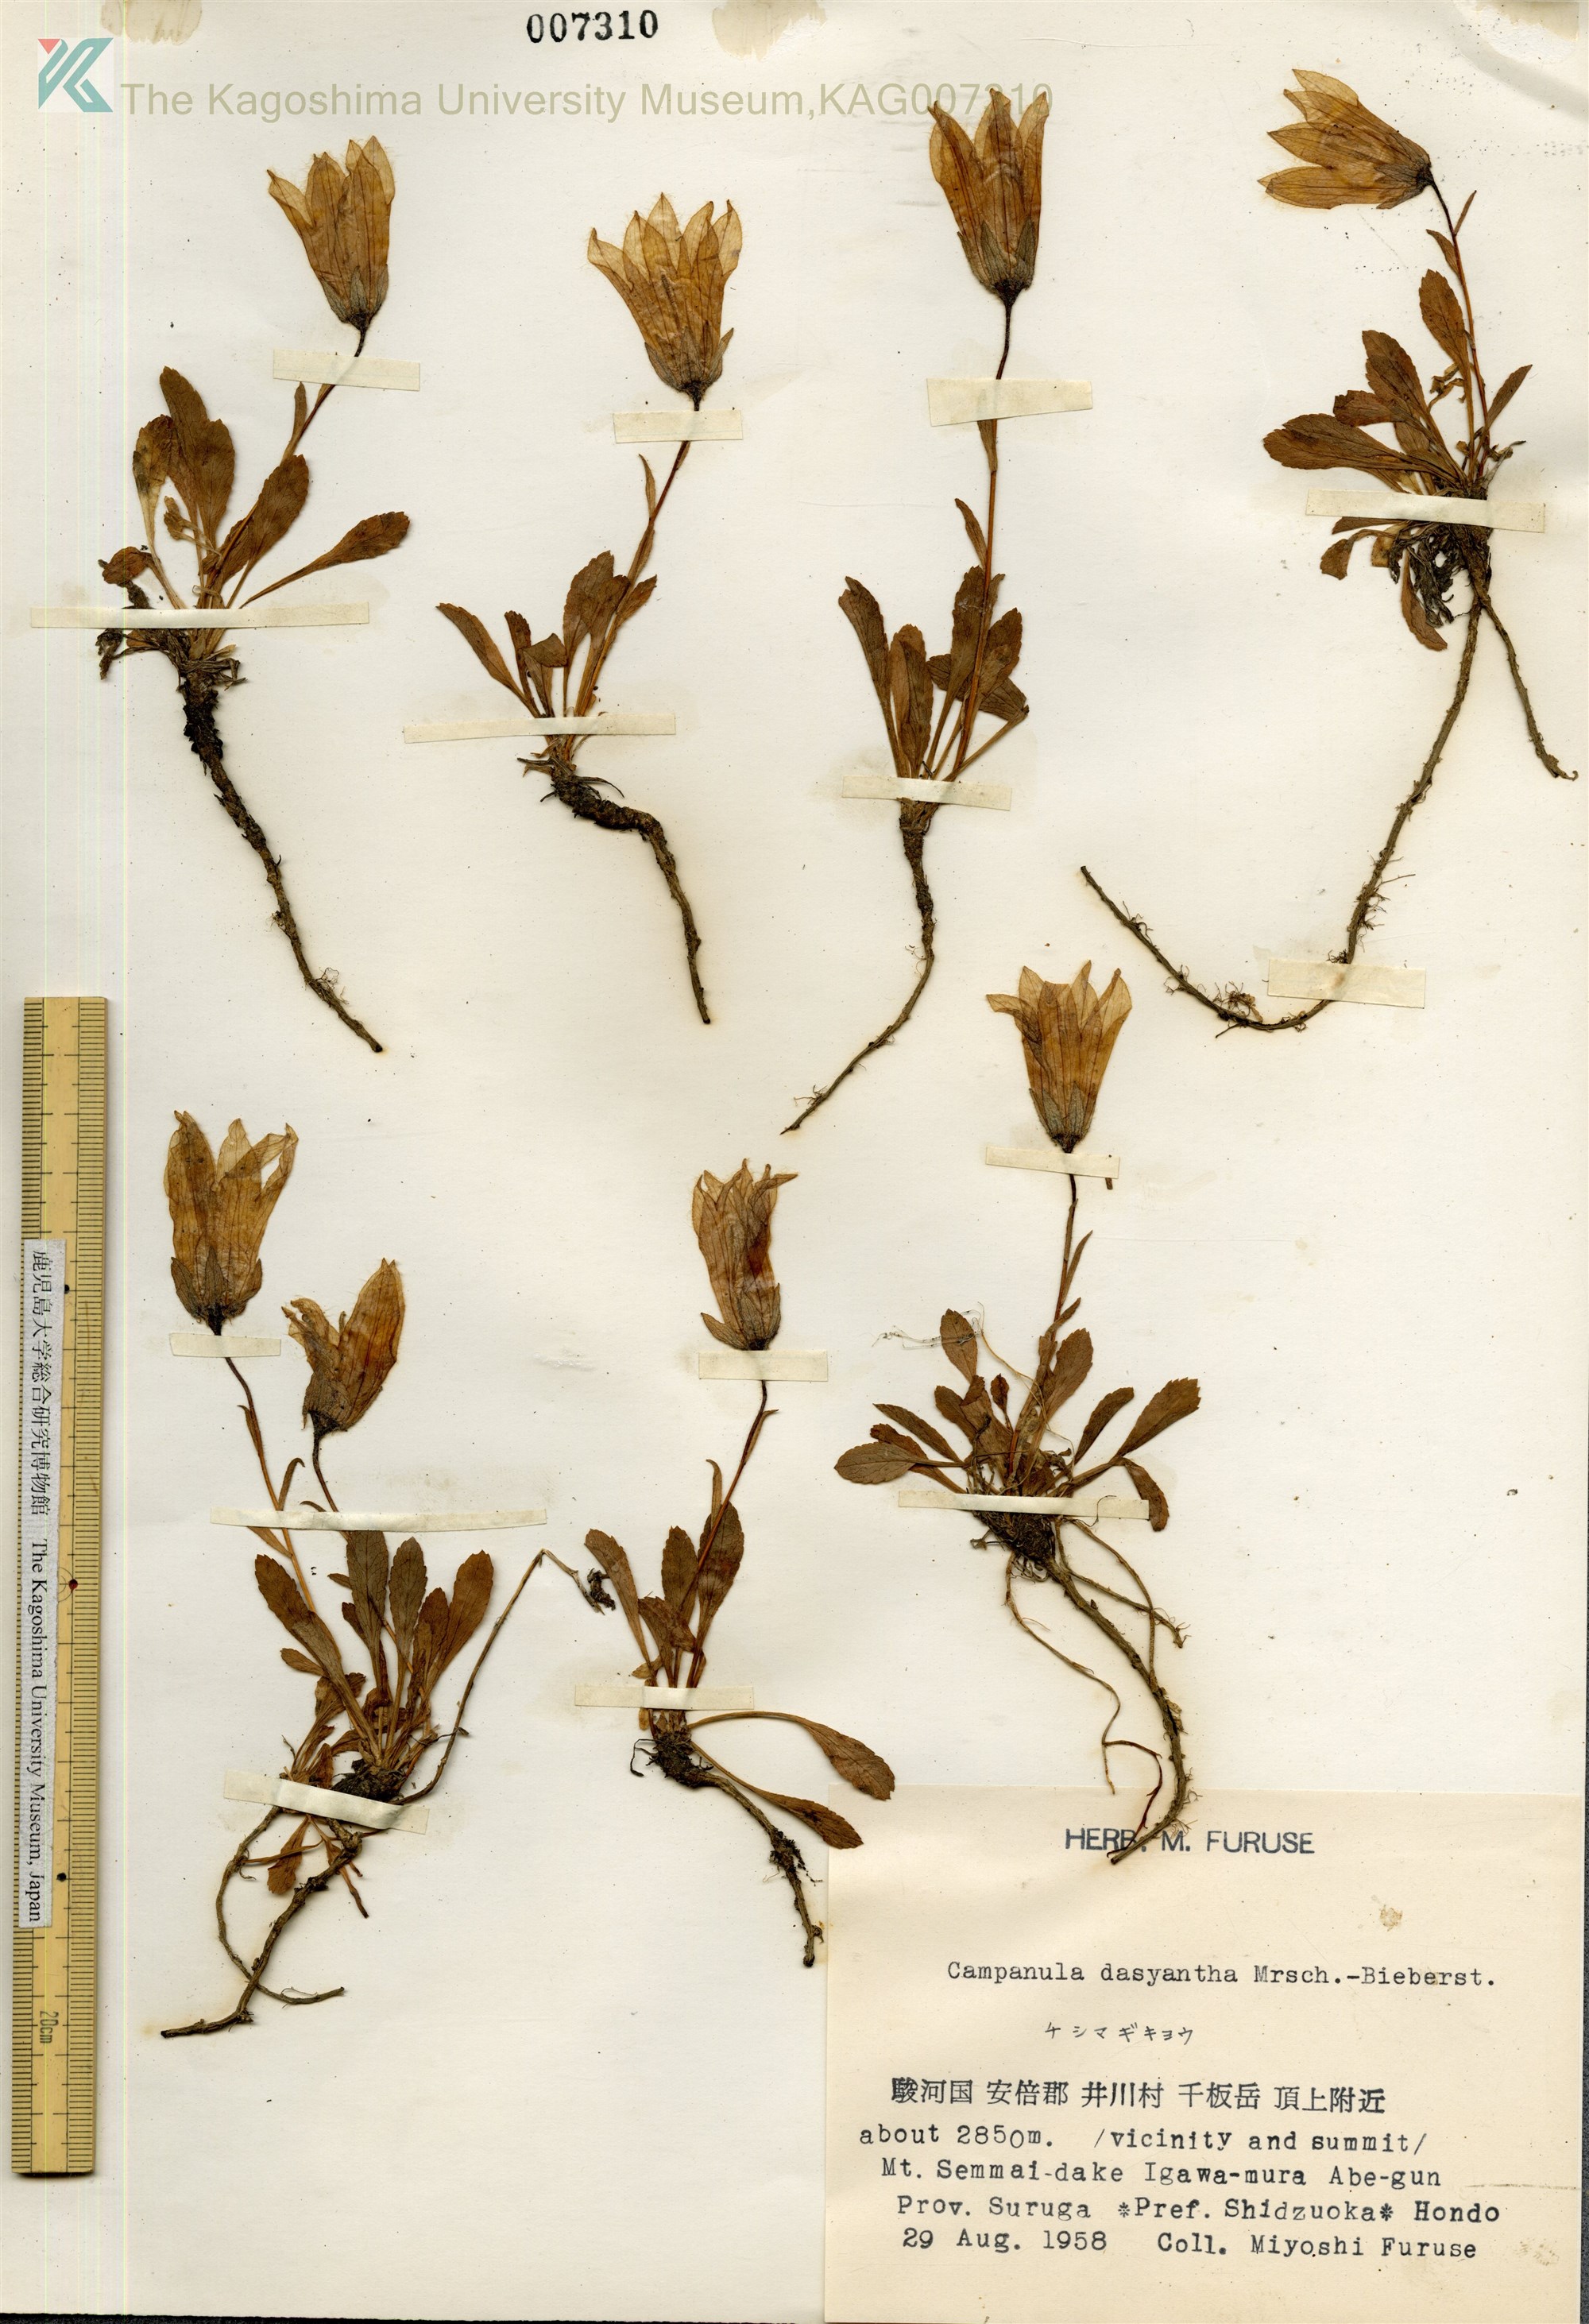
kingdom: Plantae
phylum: Tracheophyta
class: Magnoliopsida
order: Asterales
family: Campanulaceae
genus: Campanula
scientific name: Campanula dasyantha
